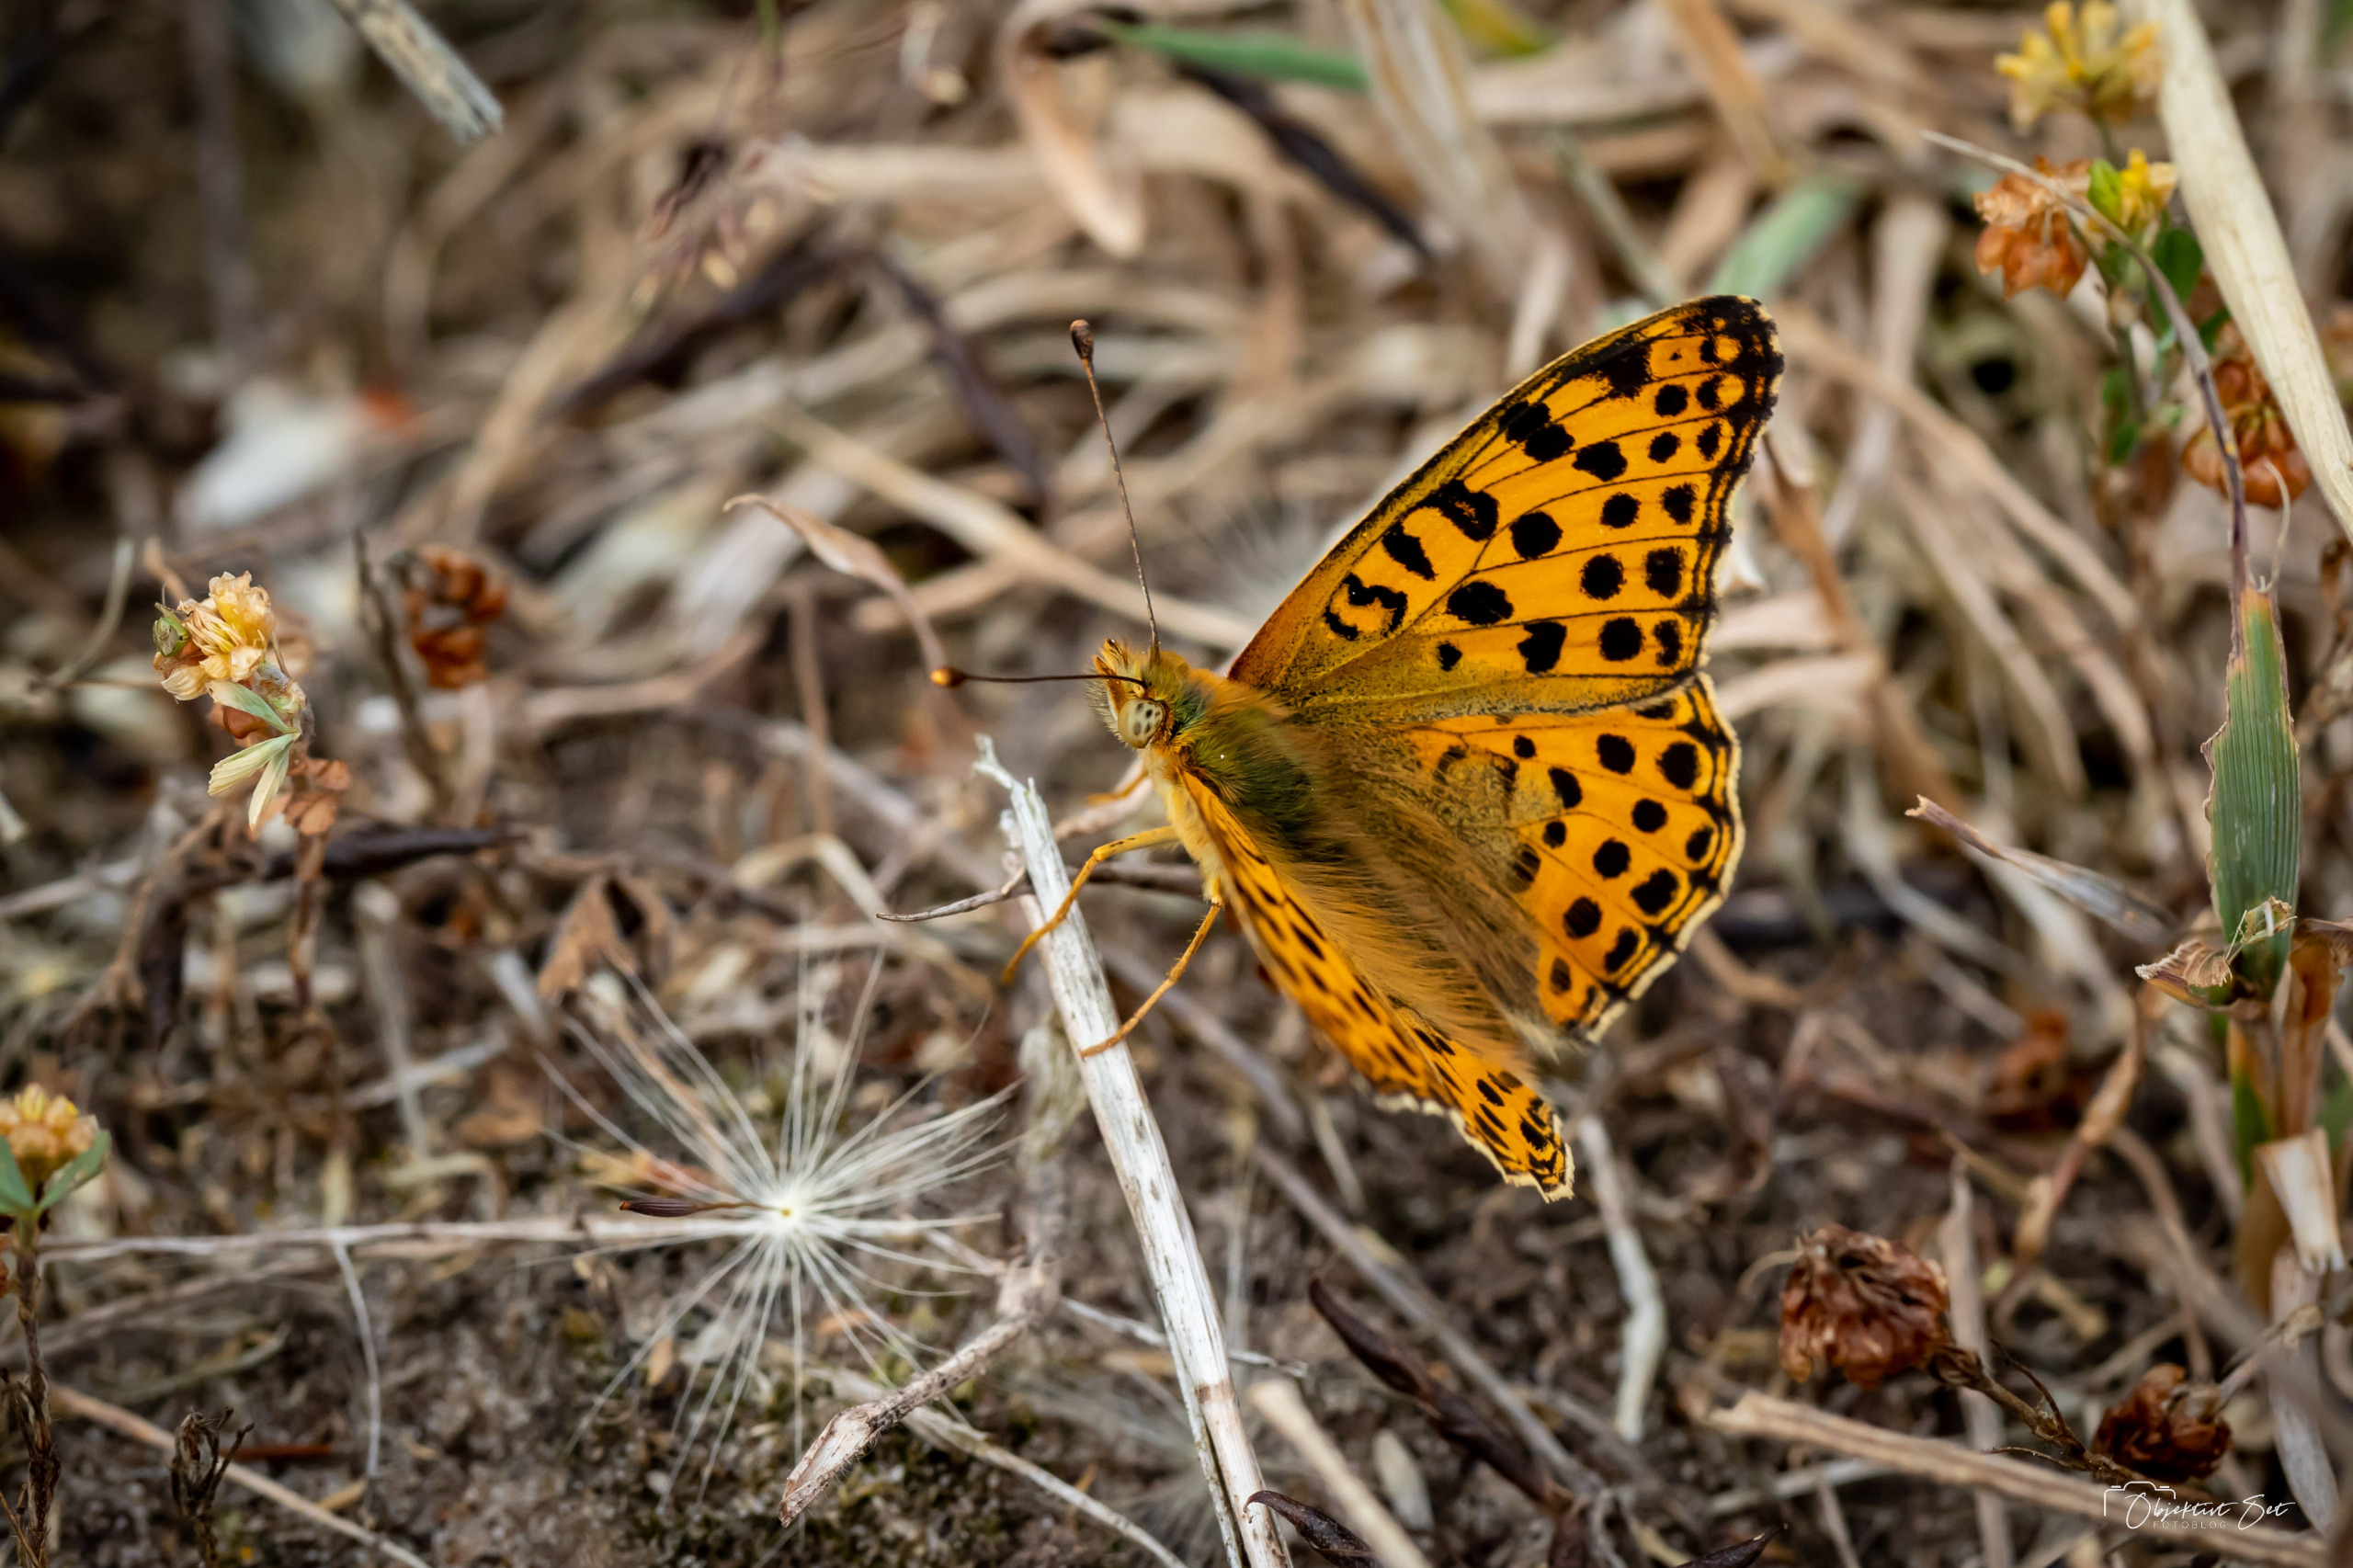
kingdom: Animalia
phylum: Arthropoda
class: Insecta
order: Lepidoptera
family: Nymphalidae
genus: Issoria
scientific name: Issoria lathonia
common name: Storplettet perlemorsommerfugl
